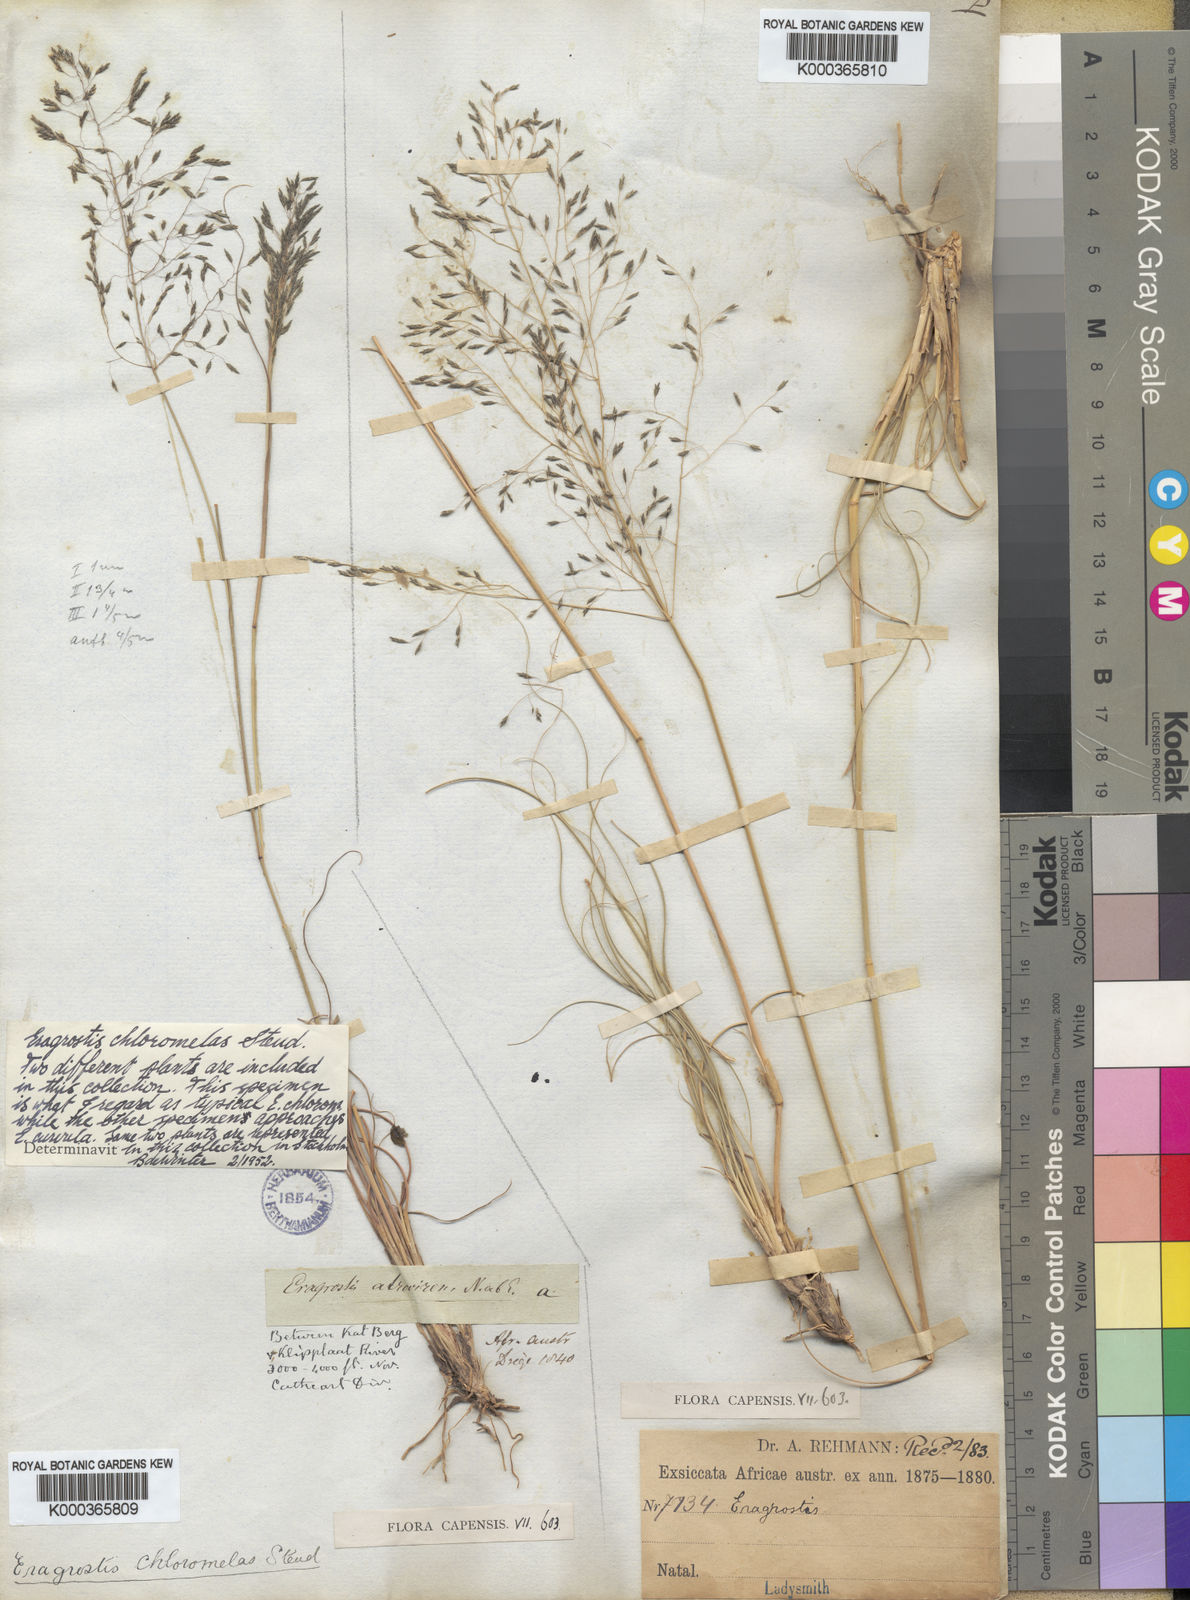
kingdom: Plantae
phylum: Tracheophyta
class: Liliopsida
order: Poales
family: Poaceae
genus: Eragrostis
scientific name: Eragrostis curvula
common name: African love-grass
